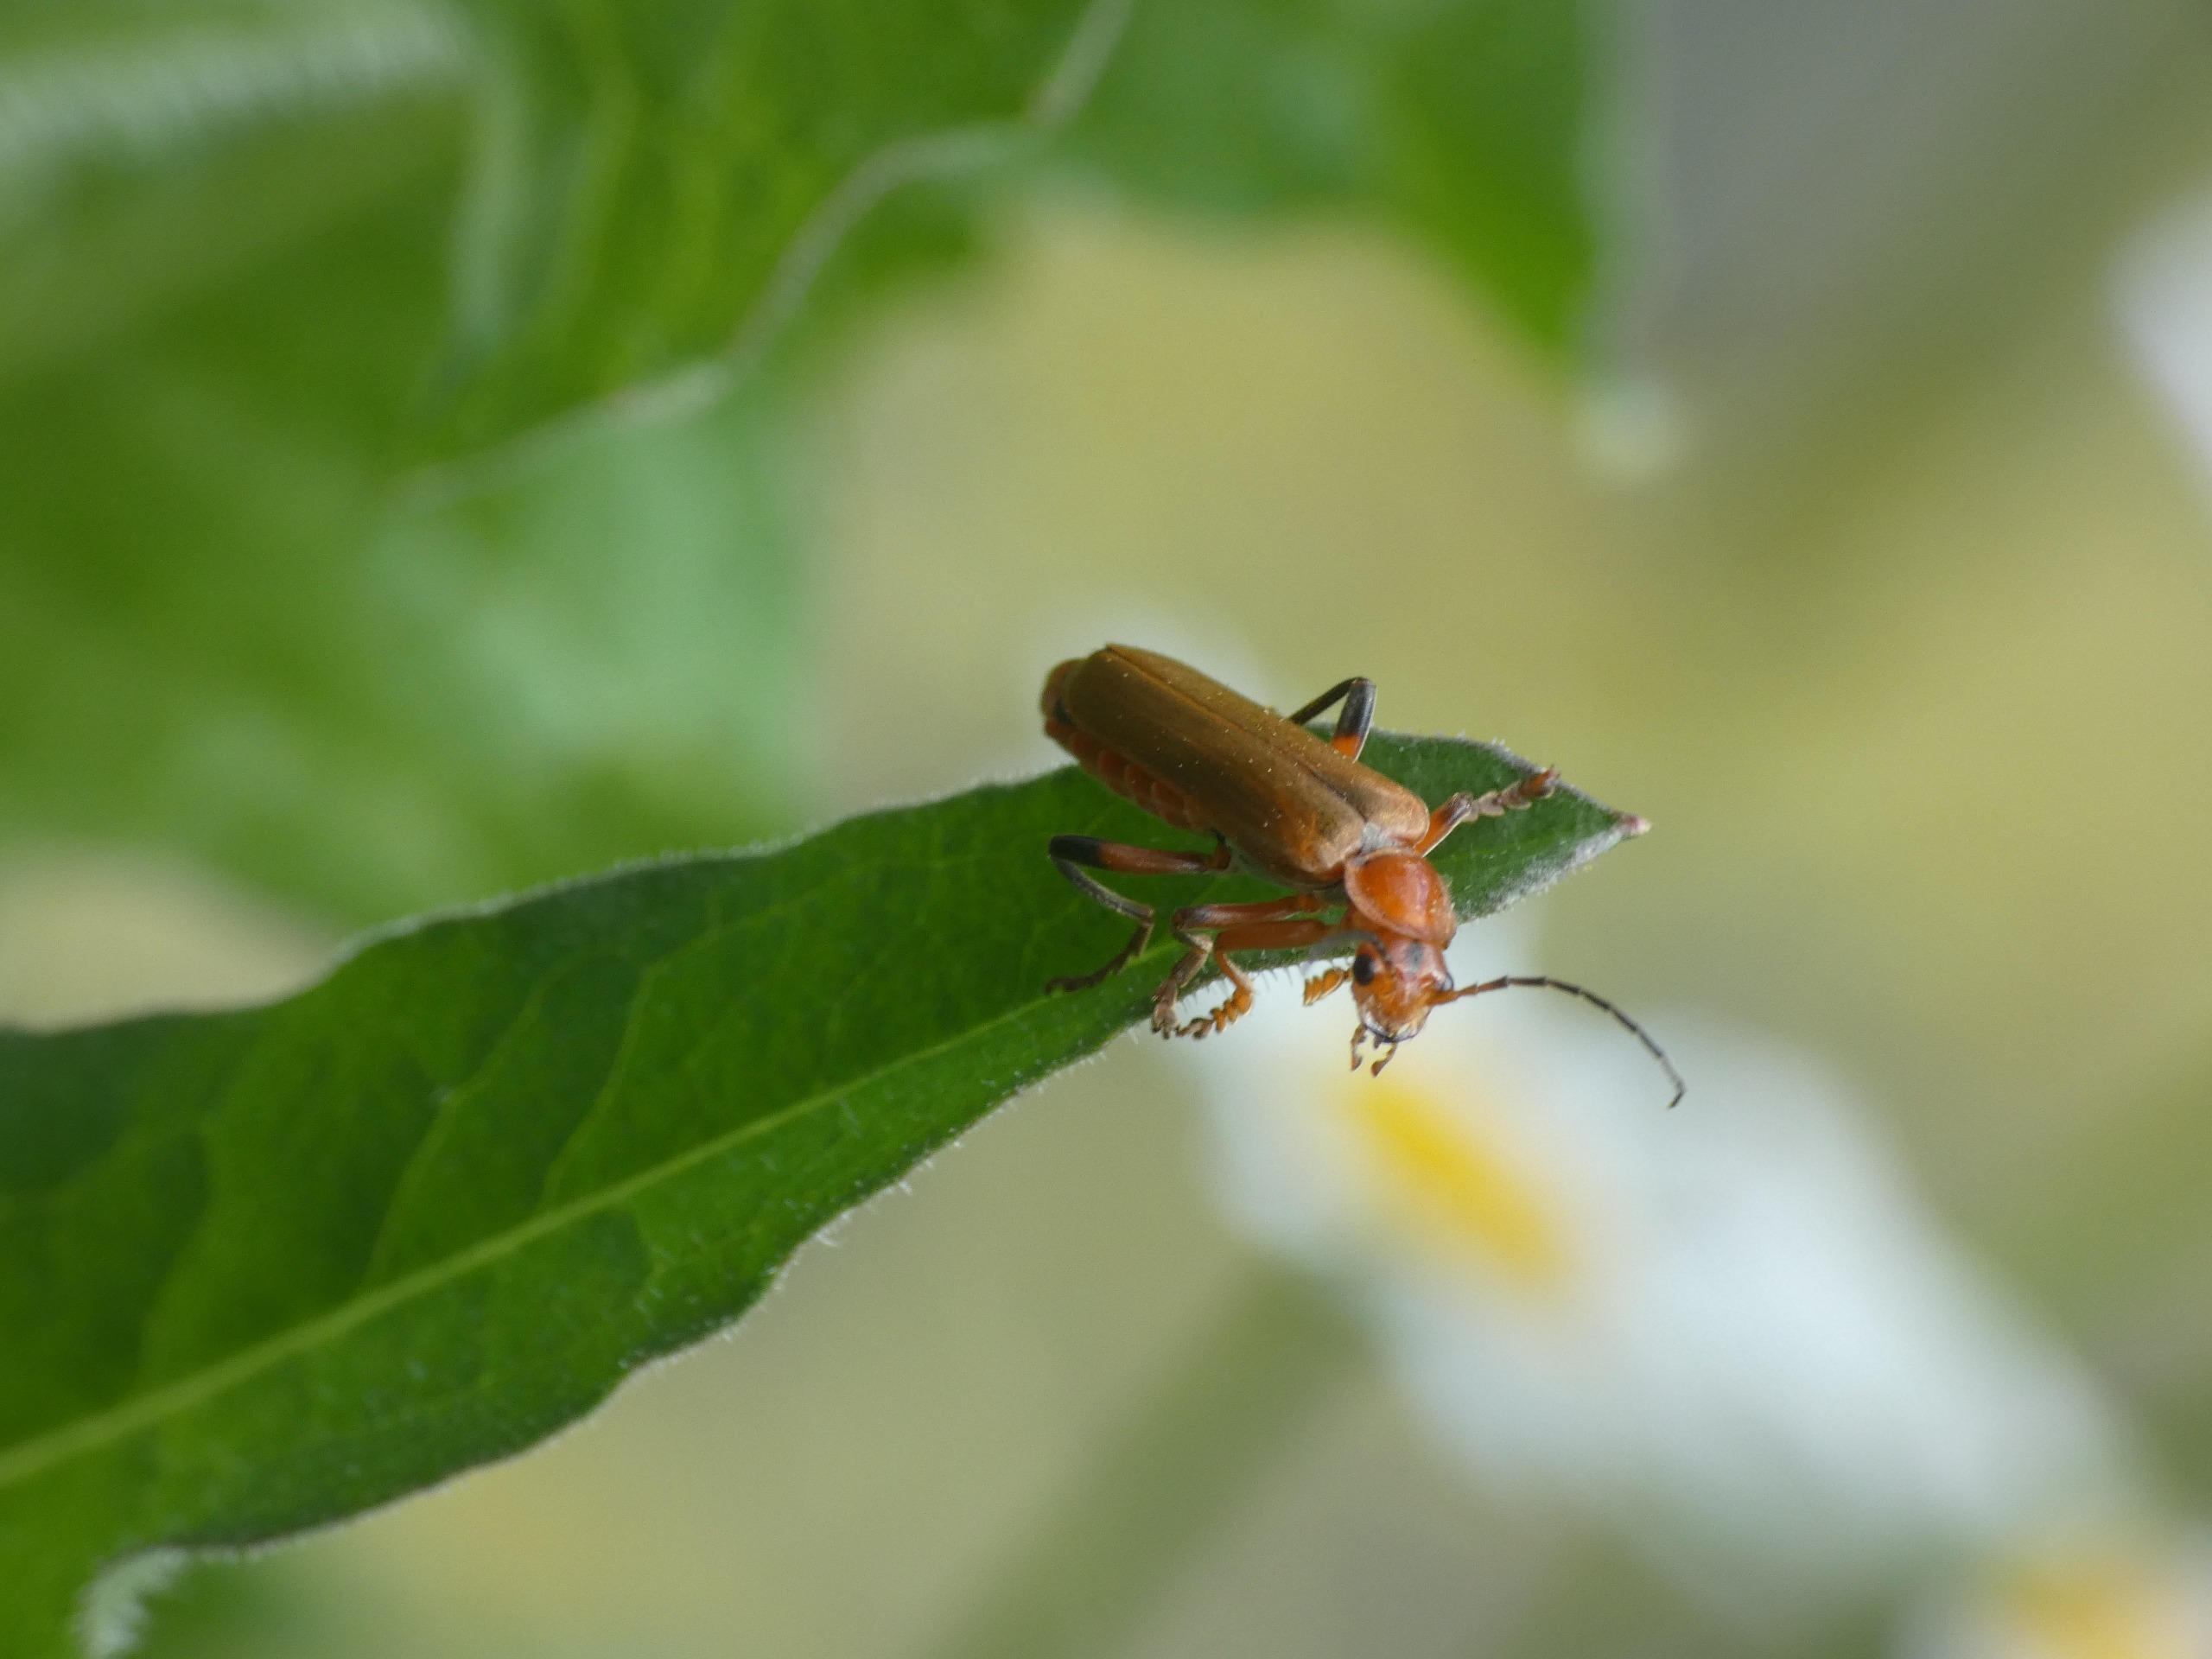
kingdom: Animalia
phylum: Arthropoda
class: Insecta
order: Coleoptera
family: Cantharidae
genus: Cantharis
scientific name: Cantharis livida
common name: Gul blødvinge
